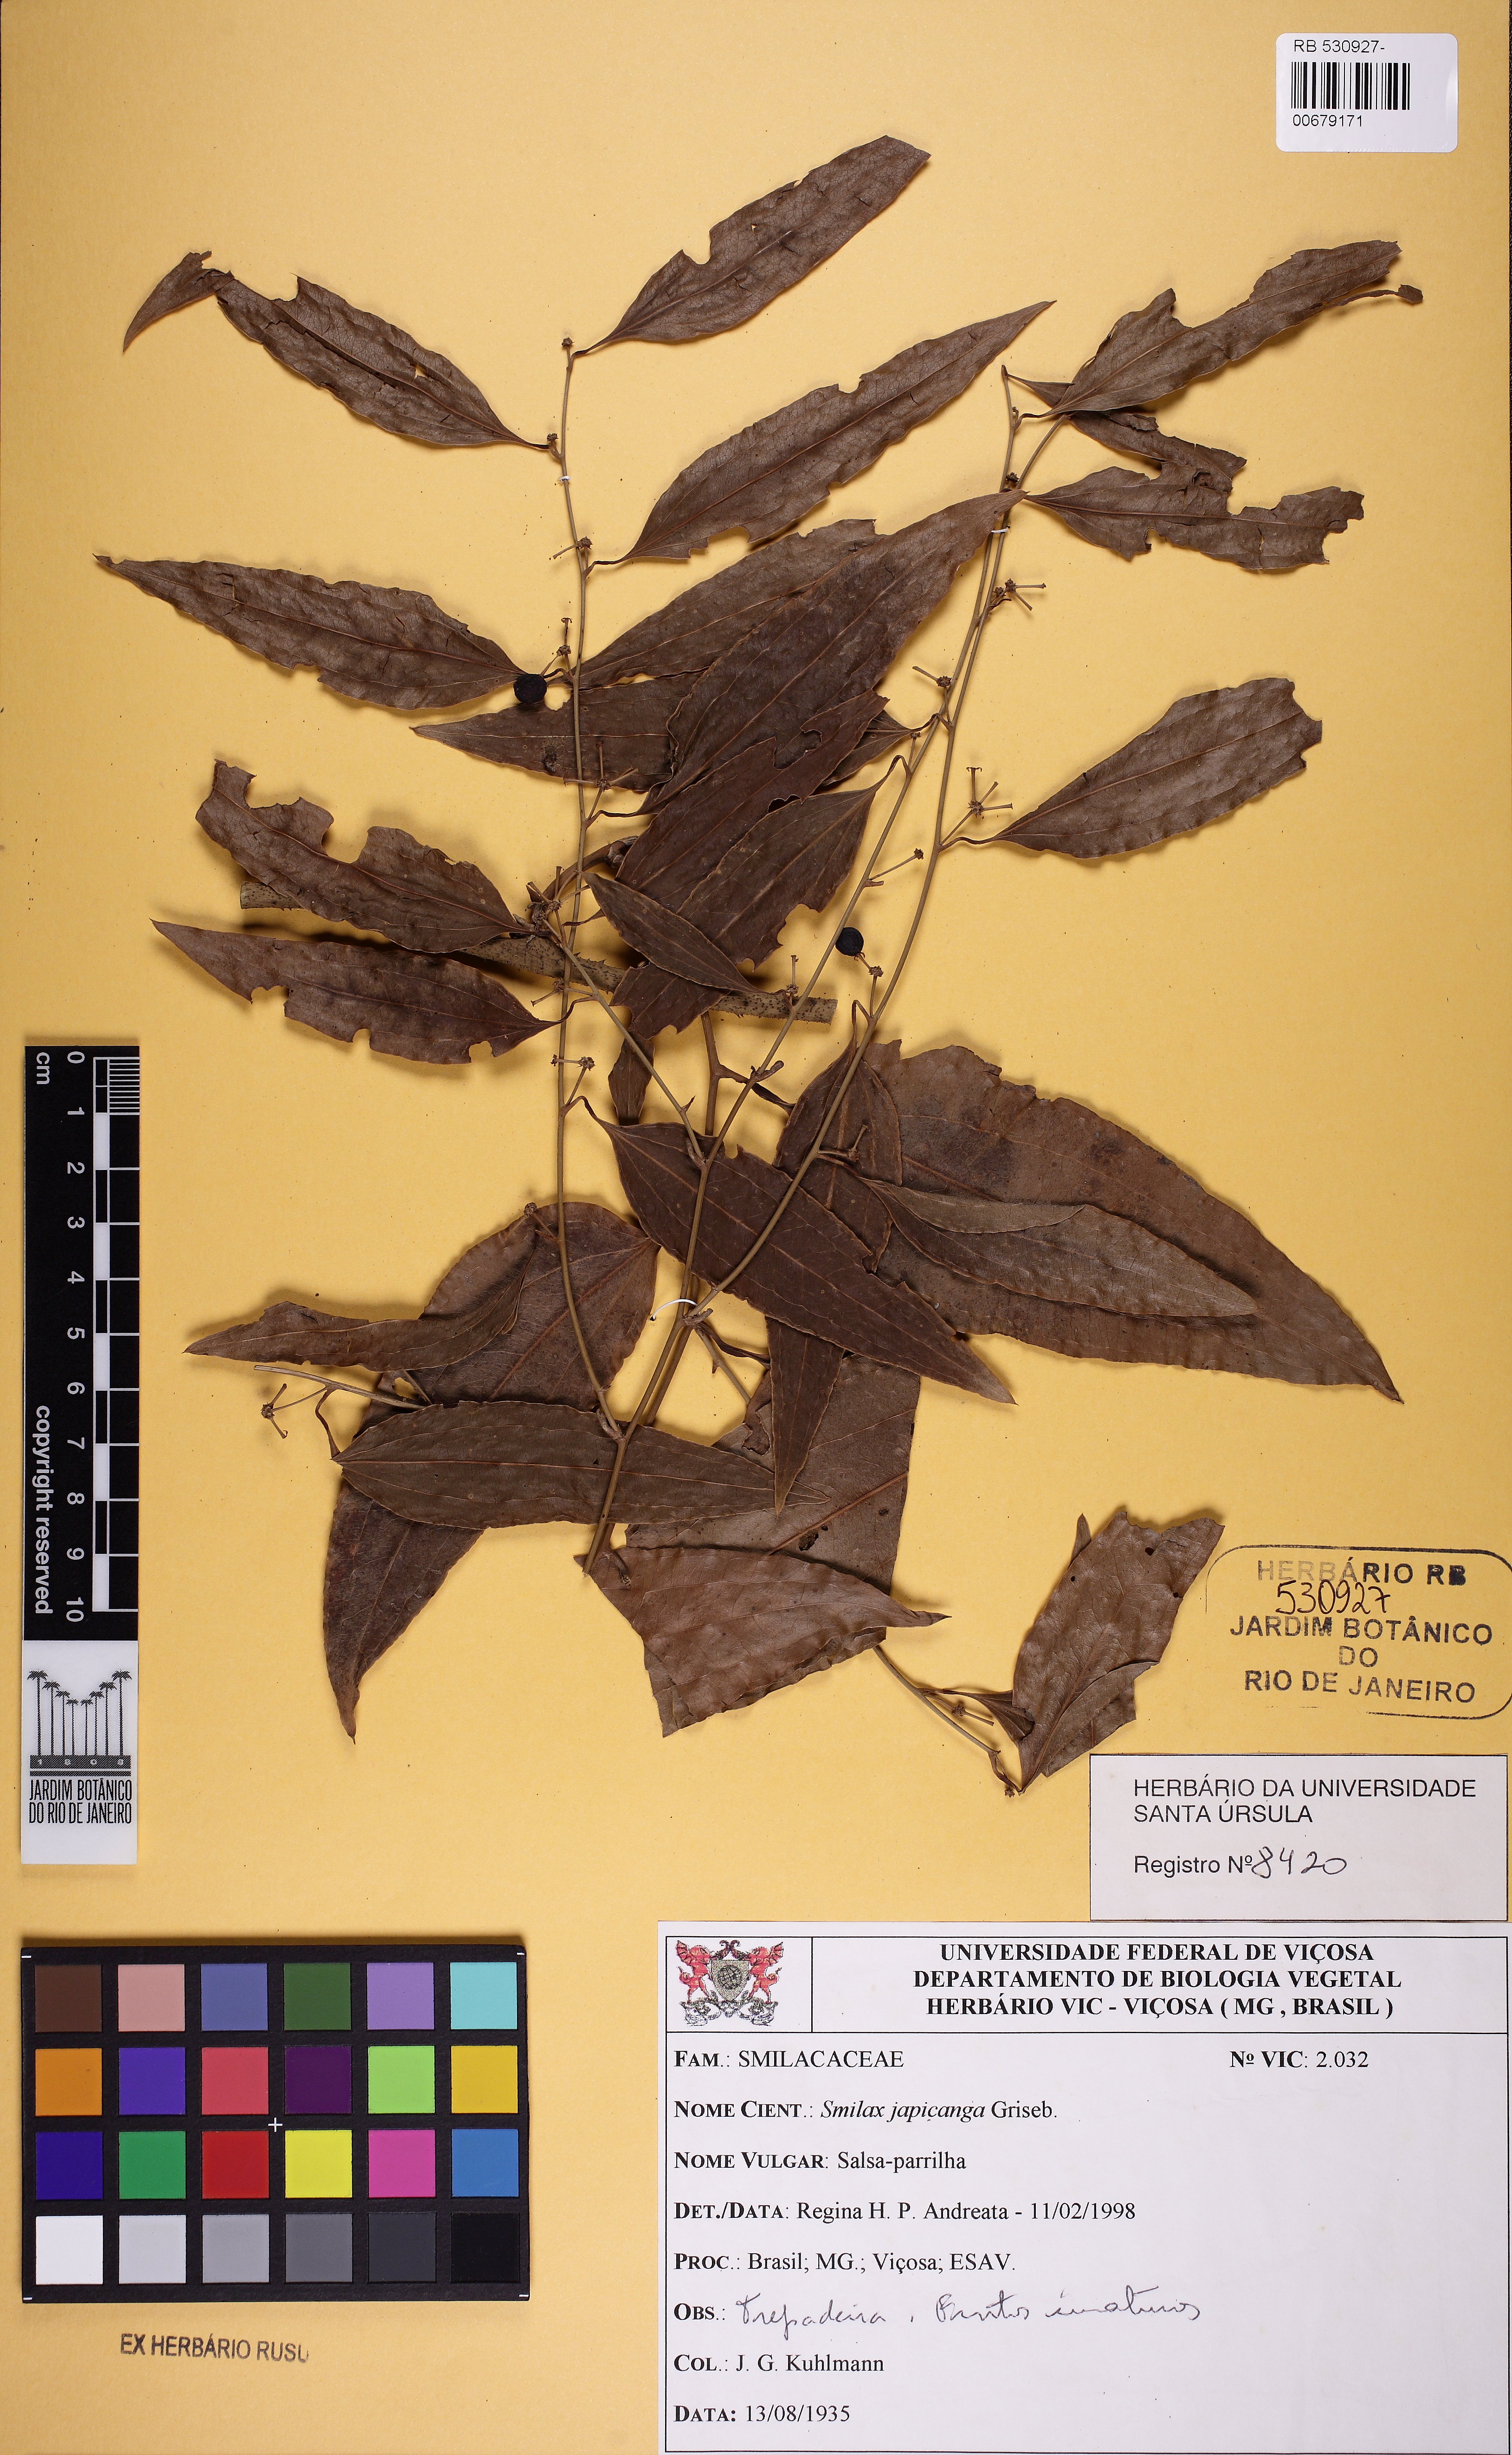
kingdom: Plantae
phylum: Tracheophyta
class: Liliopsida
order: Liliales
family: Smilacaceae
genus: Smilax
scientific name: Smilax japicanga
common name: Japicanga
